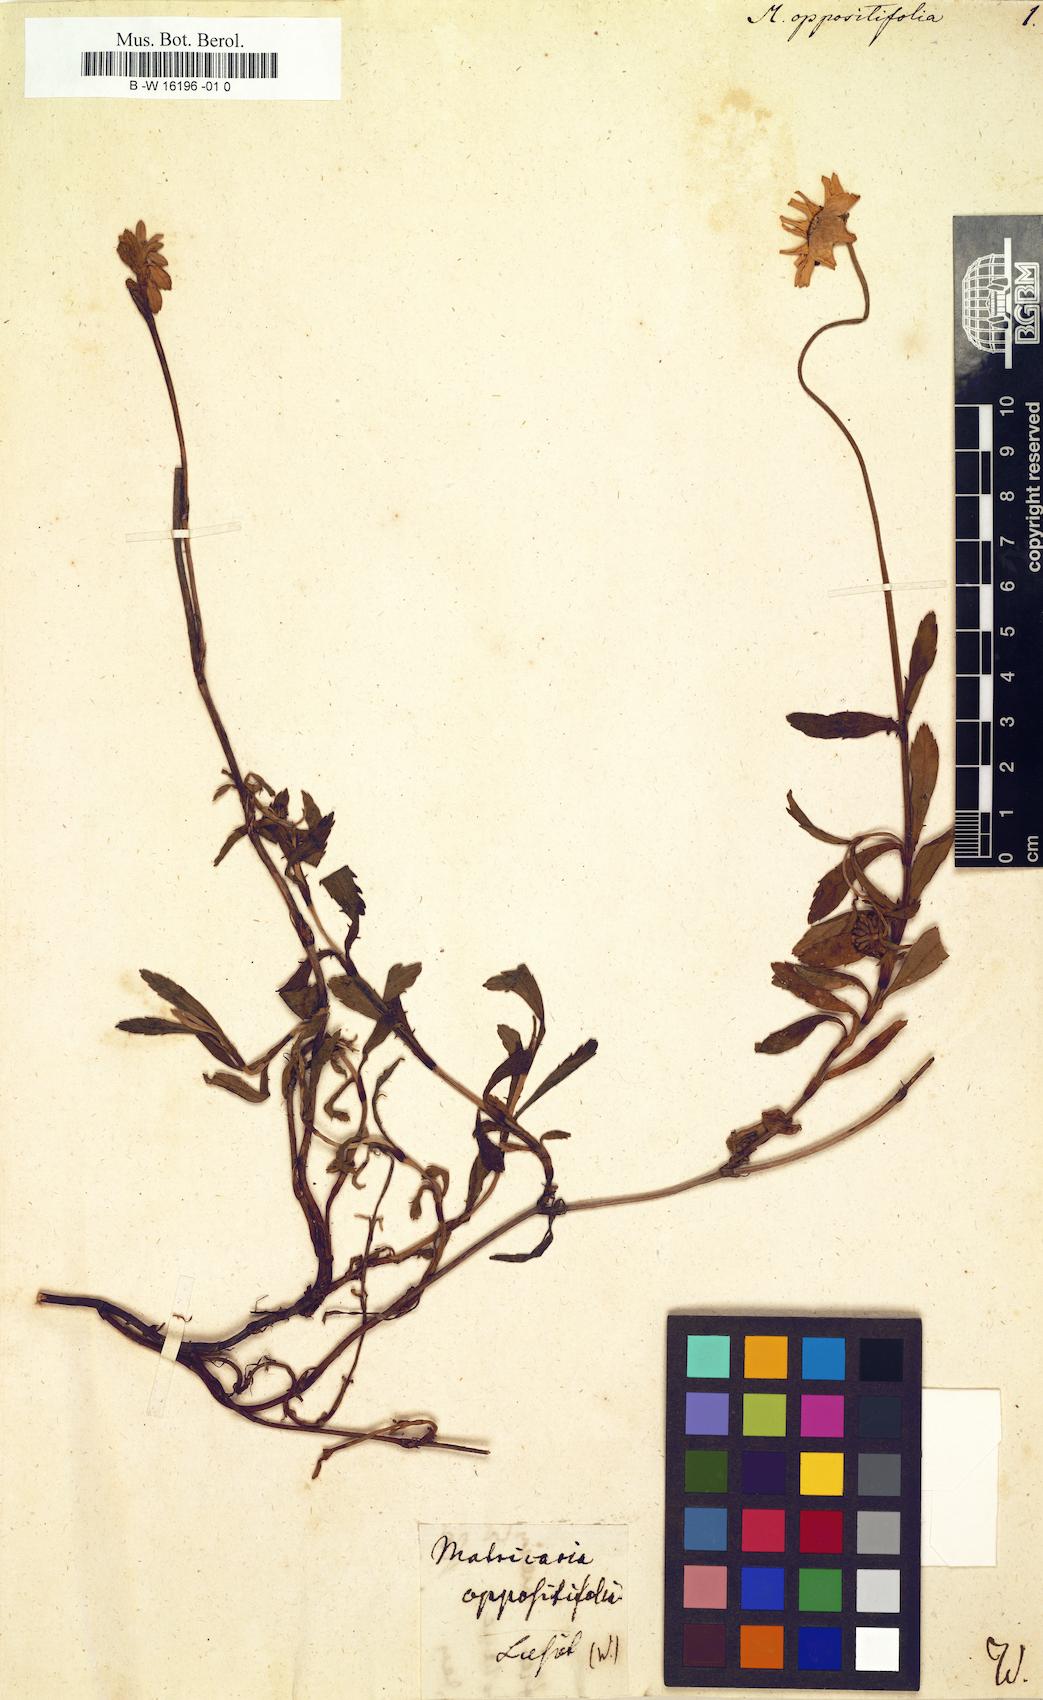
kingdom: Plantae
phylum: Tracheophyta
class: Magnoliopsida
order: Asterales
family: Asteraceae
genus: Matricaria
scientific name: Matricaria
